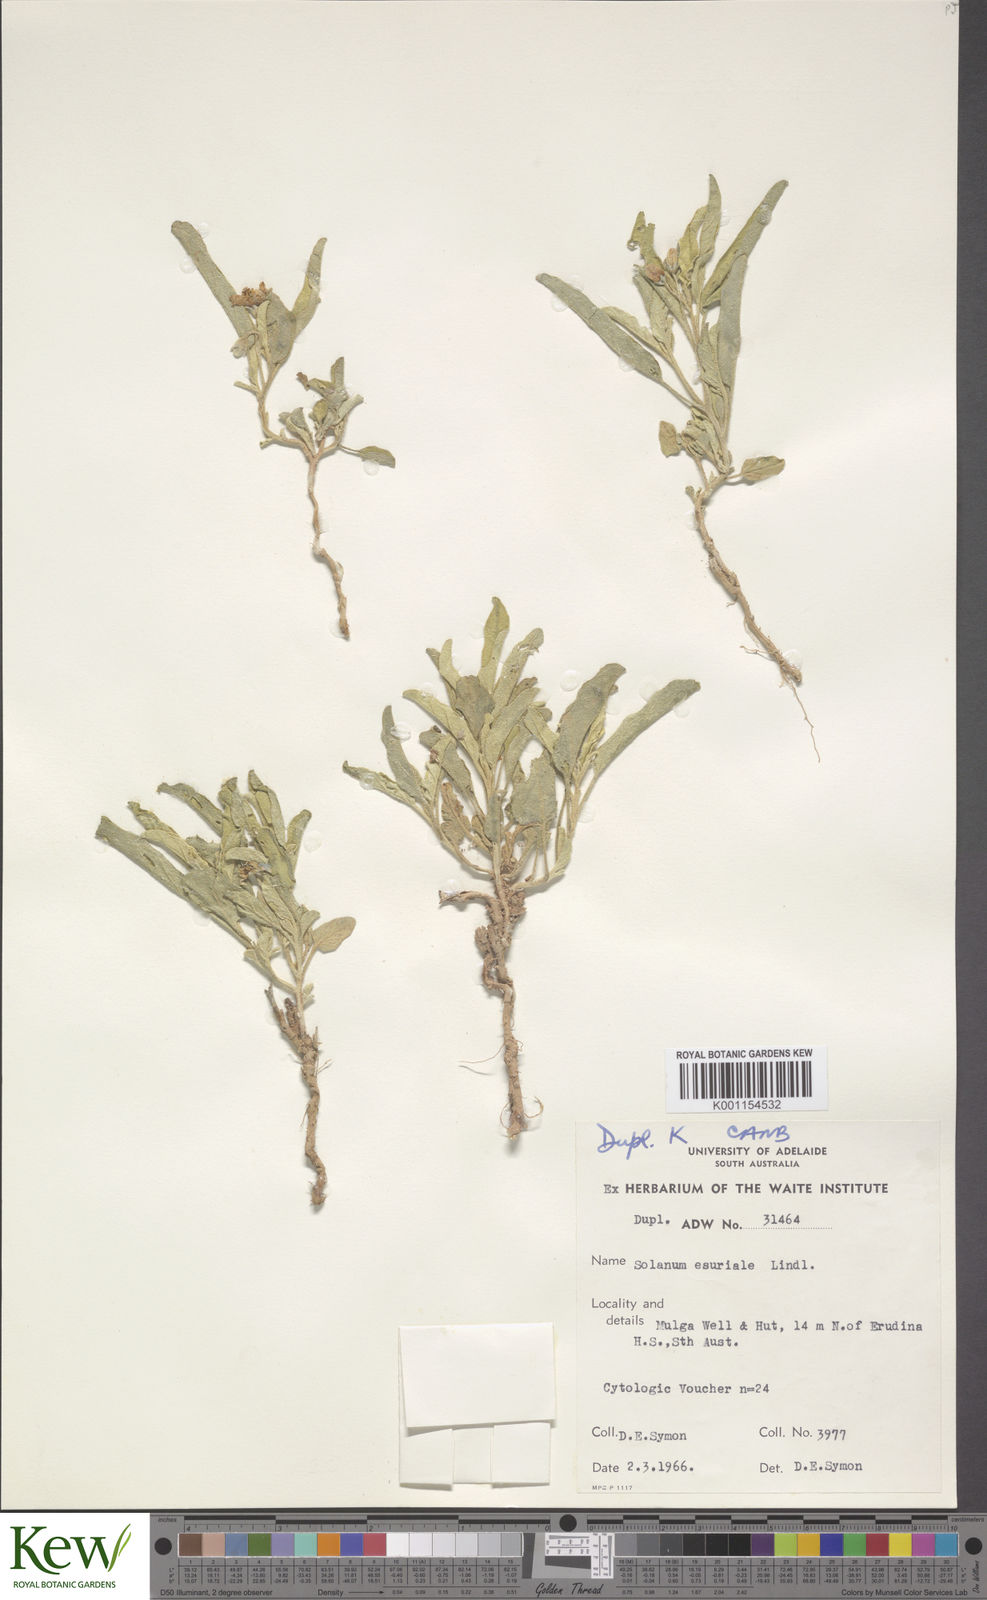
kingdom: Plantae
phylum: Tracheophyta
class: Magnoliopsida
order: Solanales
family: Solanaceae
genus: Solanum
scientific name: Solanum esuriale
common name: Wild tomato
